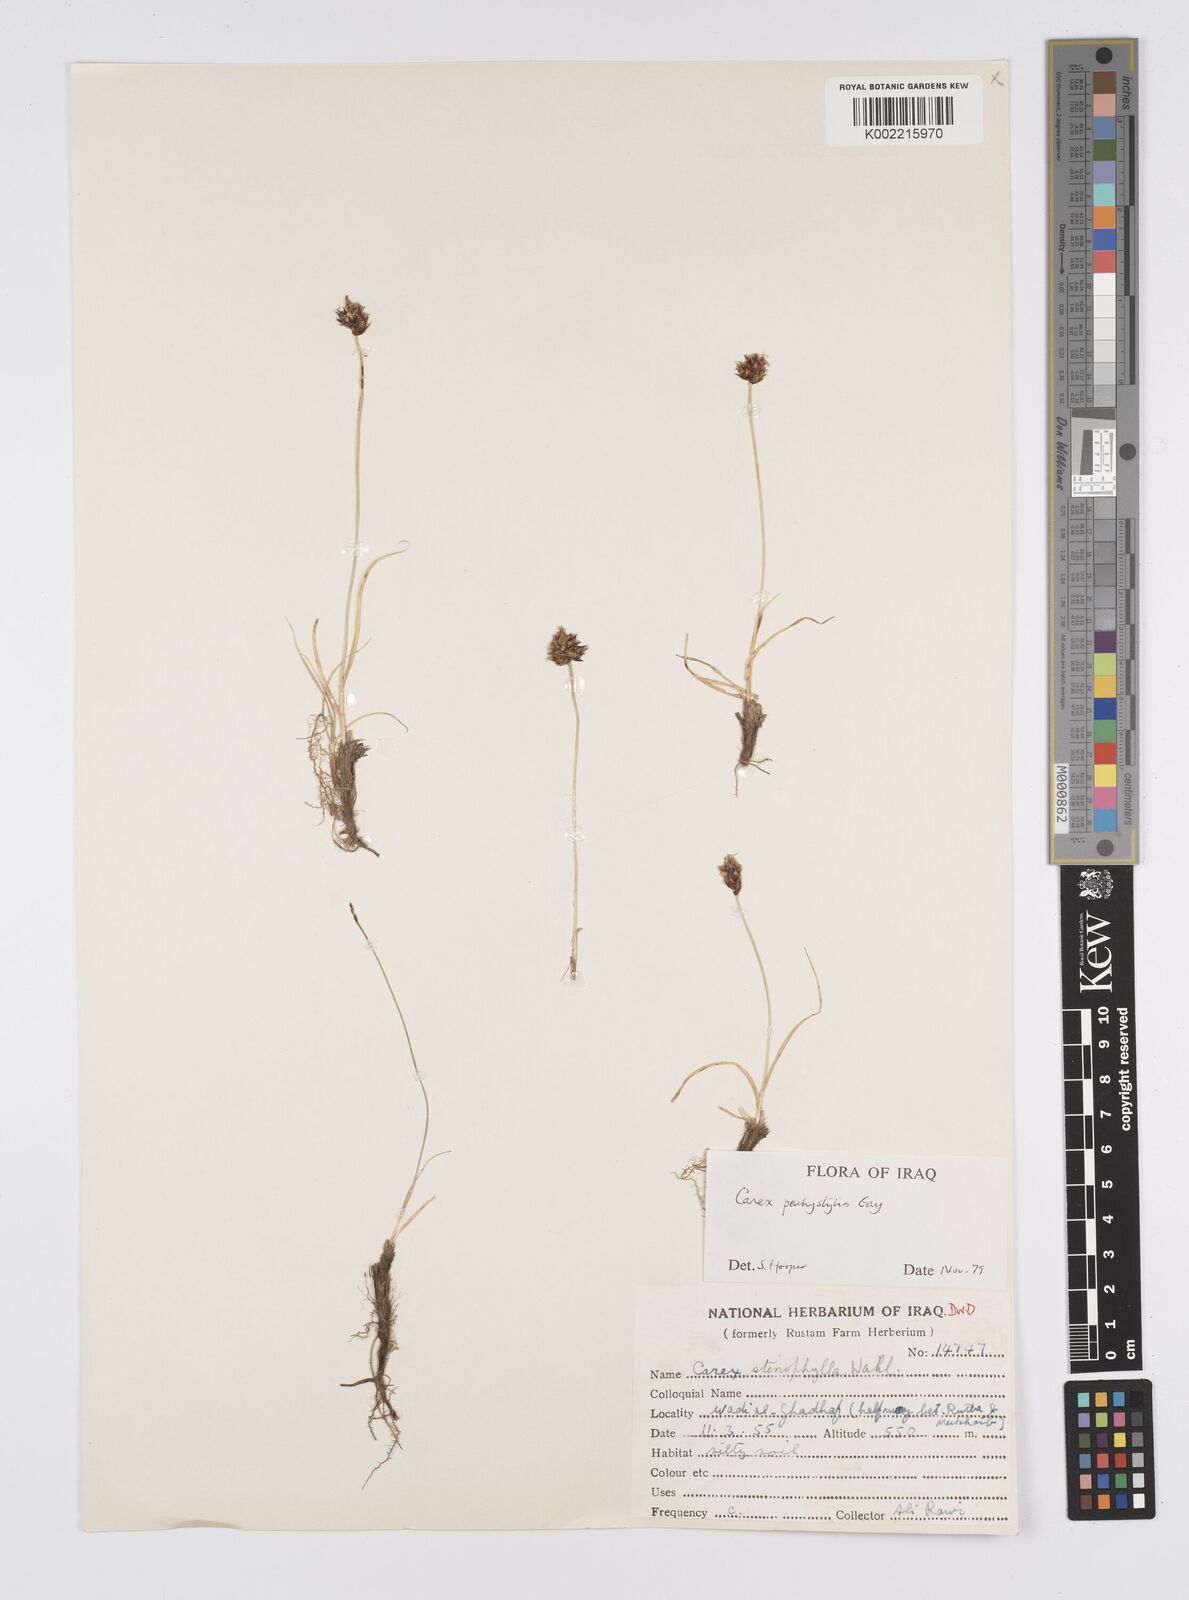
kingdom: Plantae
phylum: Tracheophyta
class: Liliopsida
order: Poales
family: Cyperaceae
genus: Carex
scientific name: Carex pachystylis
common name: Thick-stem sedge
